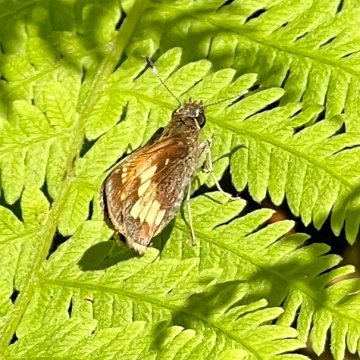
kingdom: Animalia
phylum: Arthropoda
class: Insecta
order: Lepidoptera
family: Hesperiidae
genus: Lon
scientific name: Lon hobomok
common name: Hobomok Skipper
